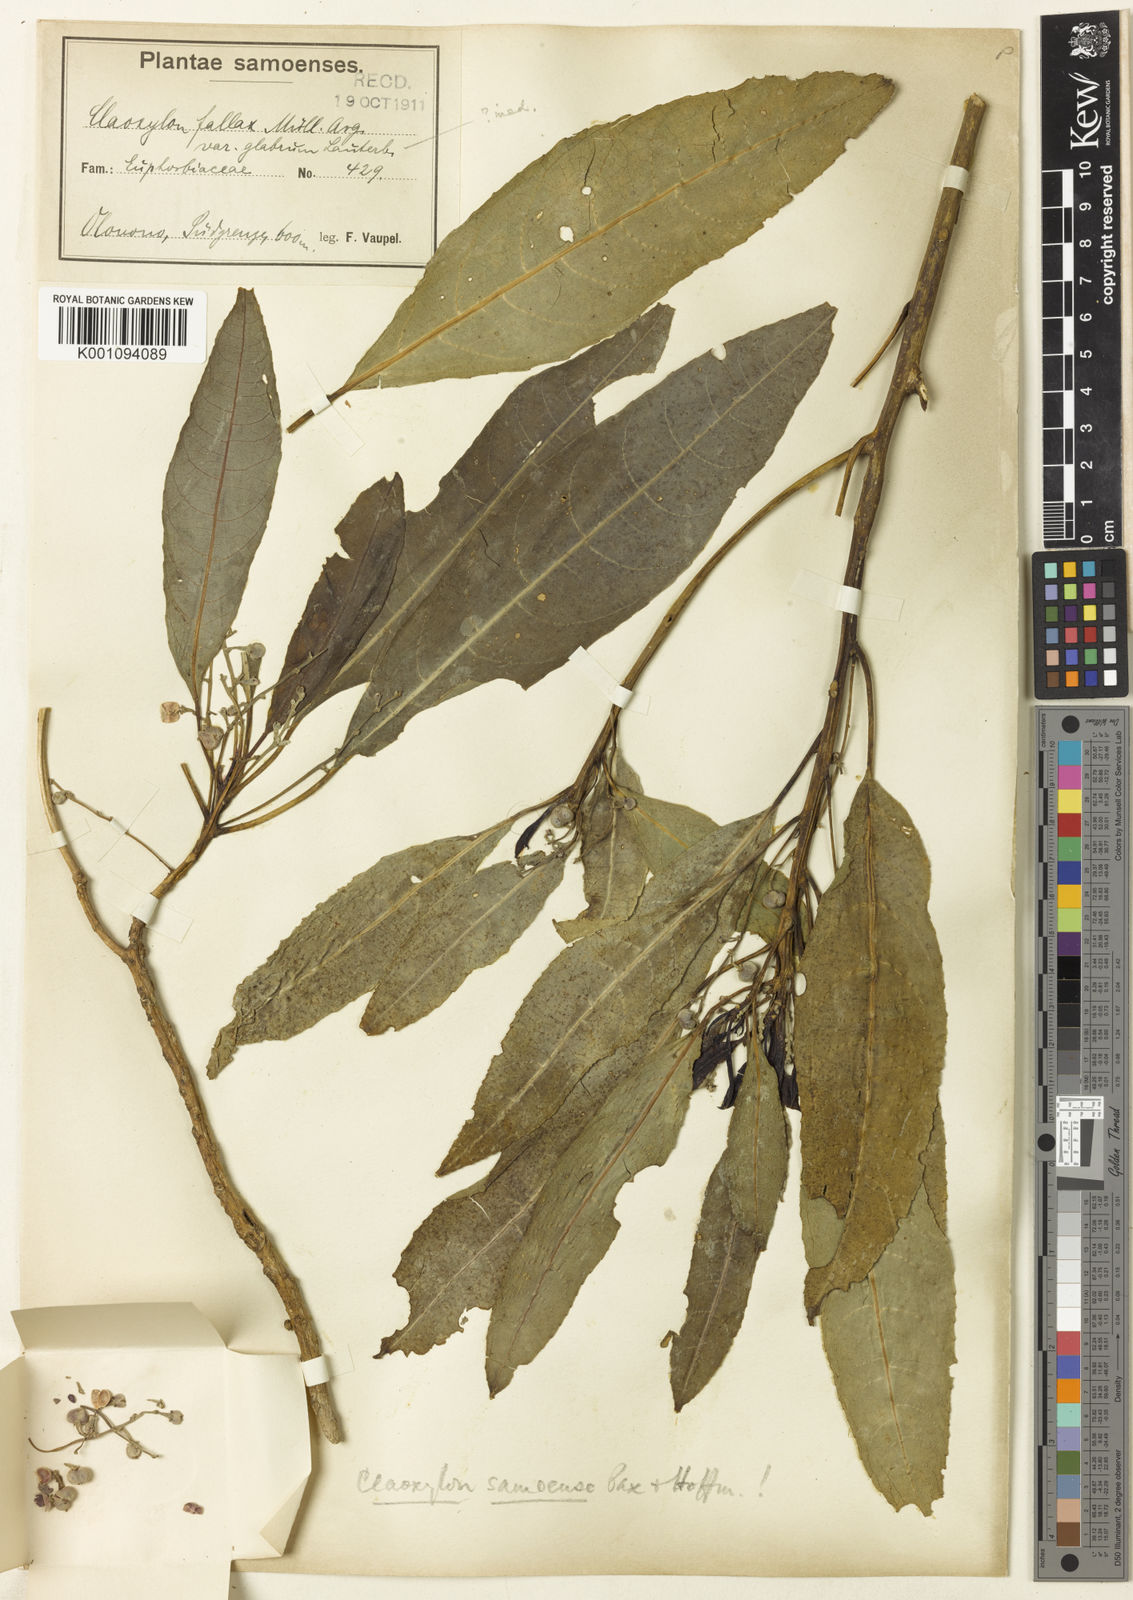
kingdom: Plantae
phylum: Tracheophyta
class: Magnoliopsida
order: Malpighiales
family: Euphorbiaceae
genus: Claoxylon
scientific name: Claoxylon samoense
